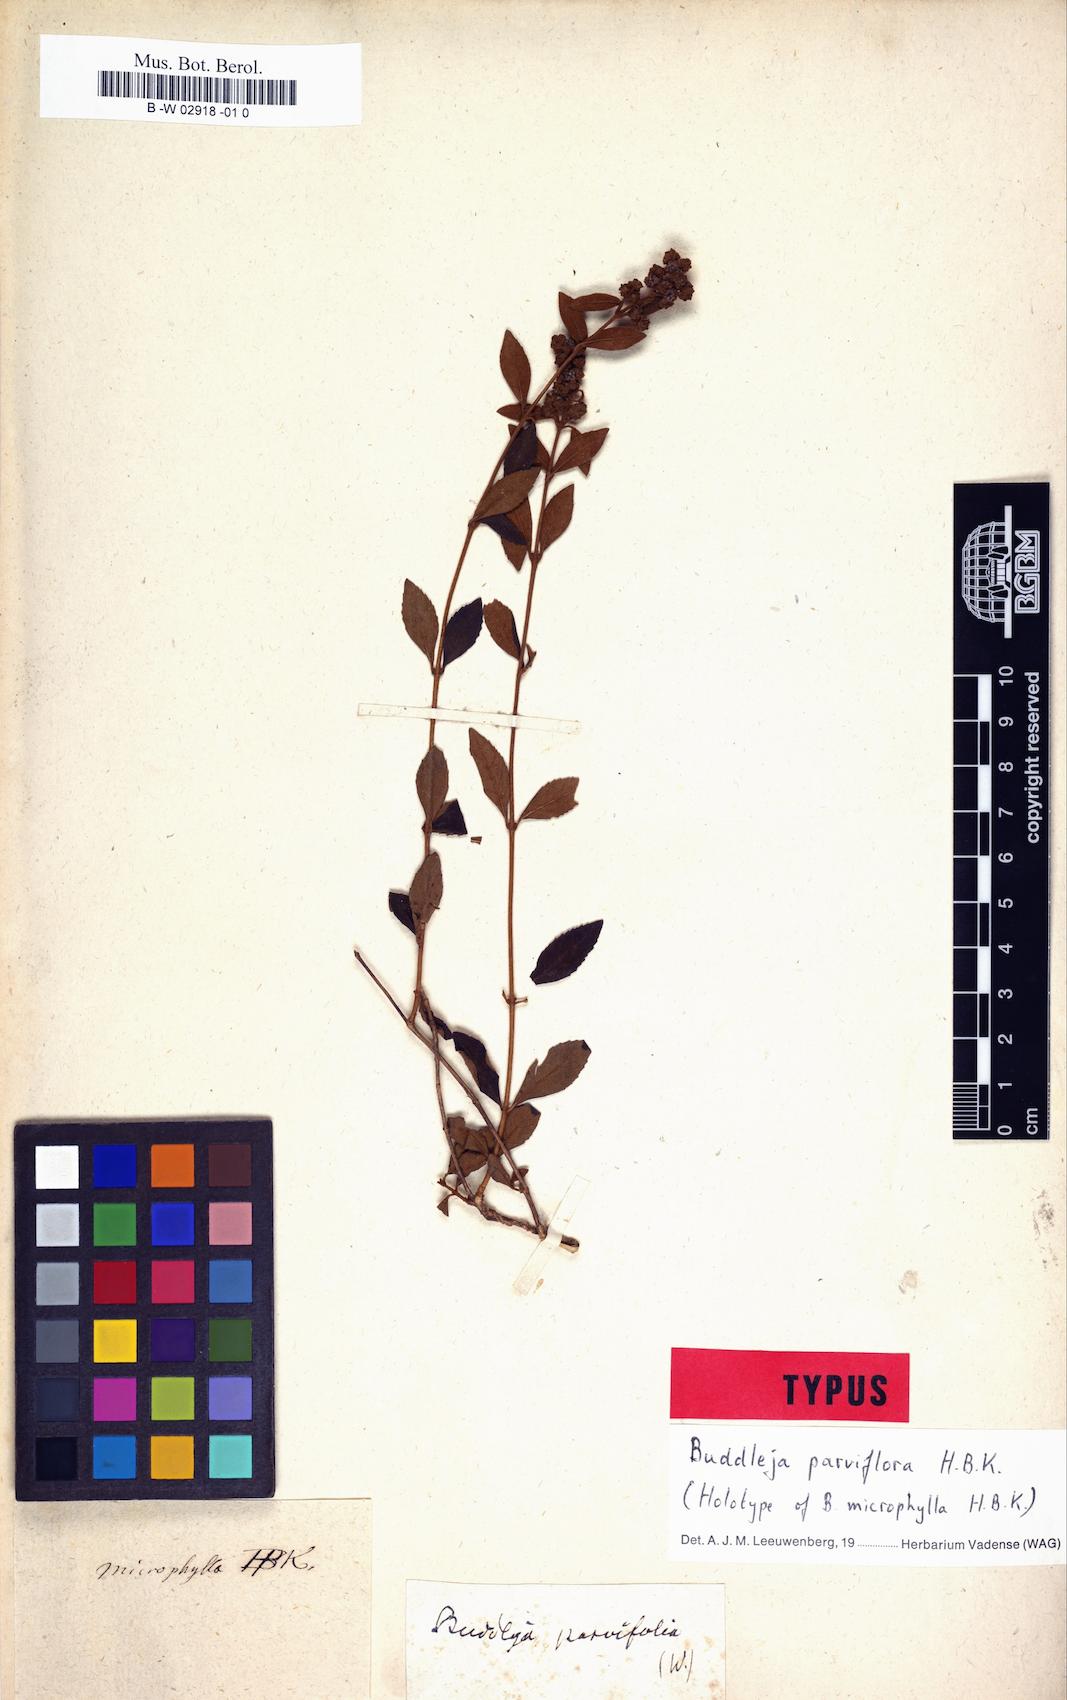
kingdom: Plantae
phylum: Tracheophyta
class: Magnoliopsida
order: Lamiales
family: Scrophulariaceae
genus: Buddleja
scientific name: Buddleja parviflora
